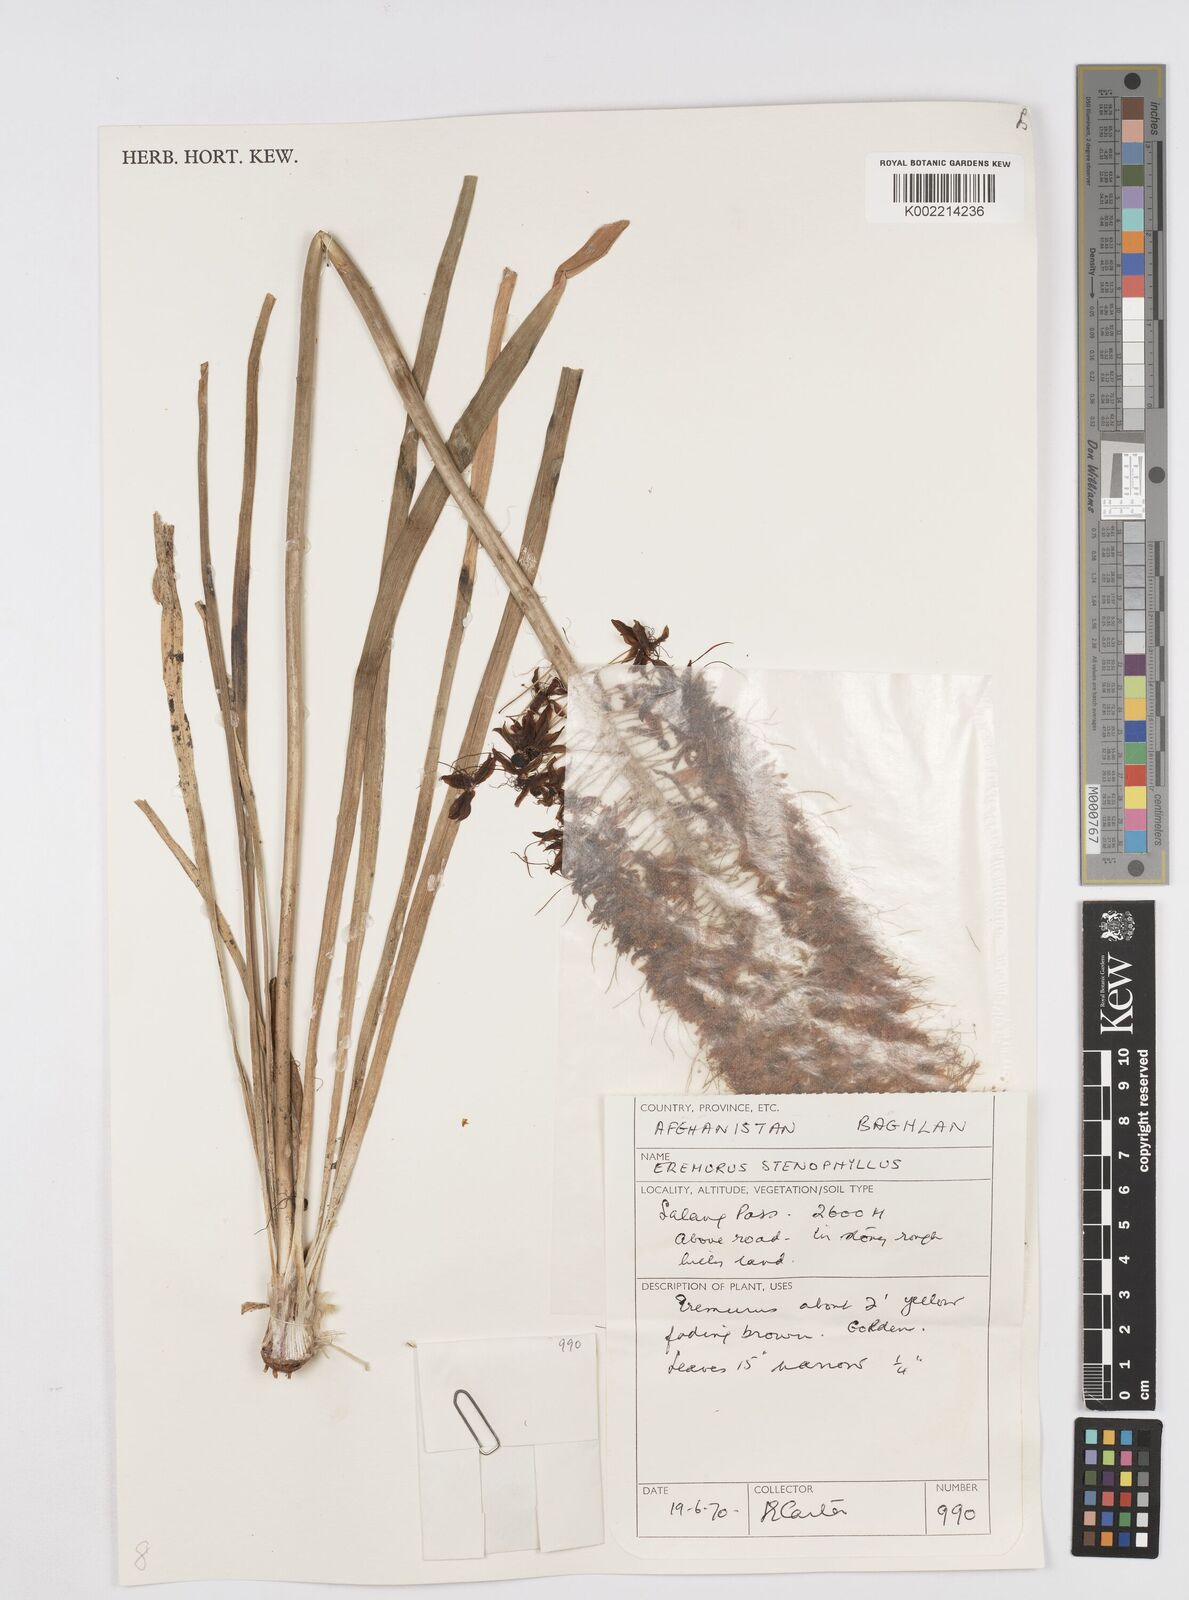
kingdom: Plantae
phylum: Tracheophyta
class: Liliopsida
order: Asparagales
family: Asphodelaceae
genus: Eremurus
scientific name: Eremurus stenophyllus
